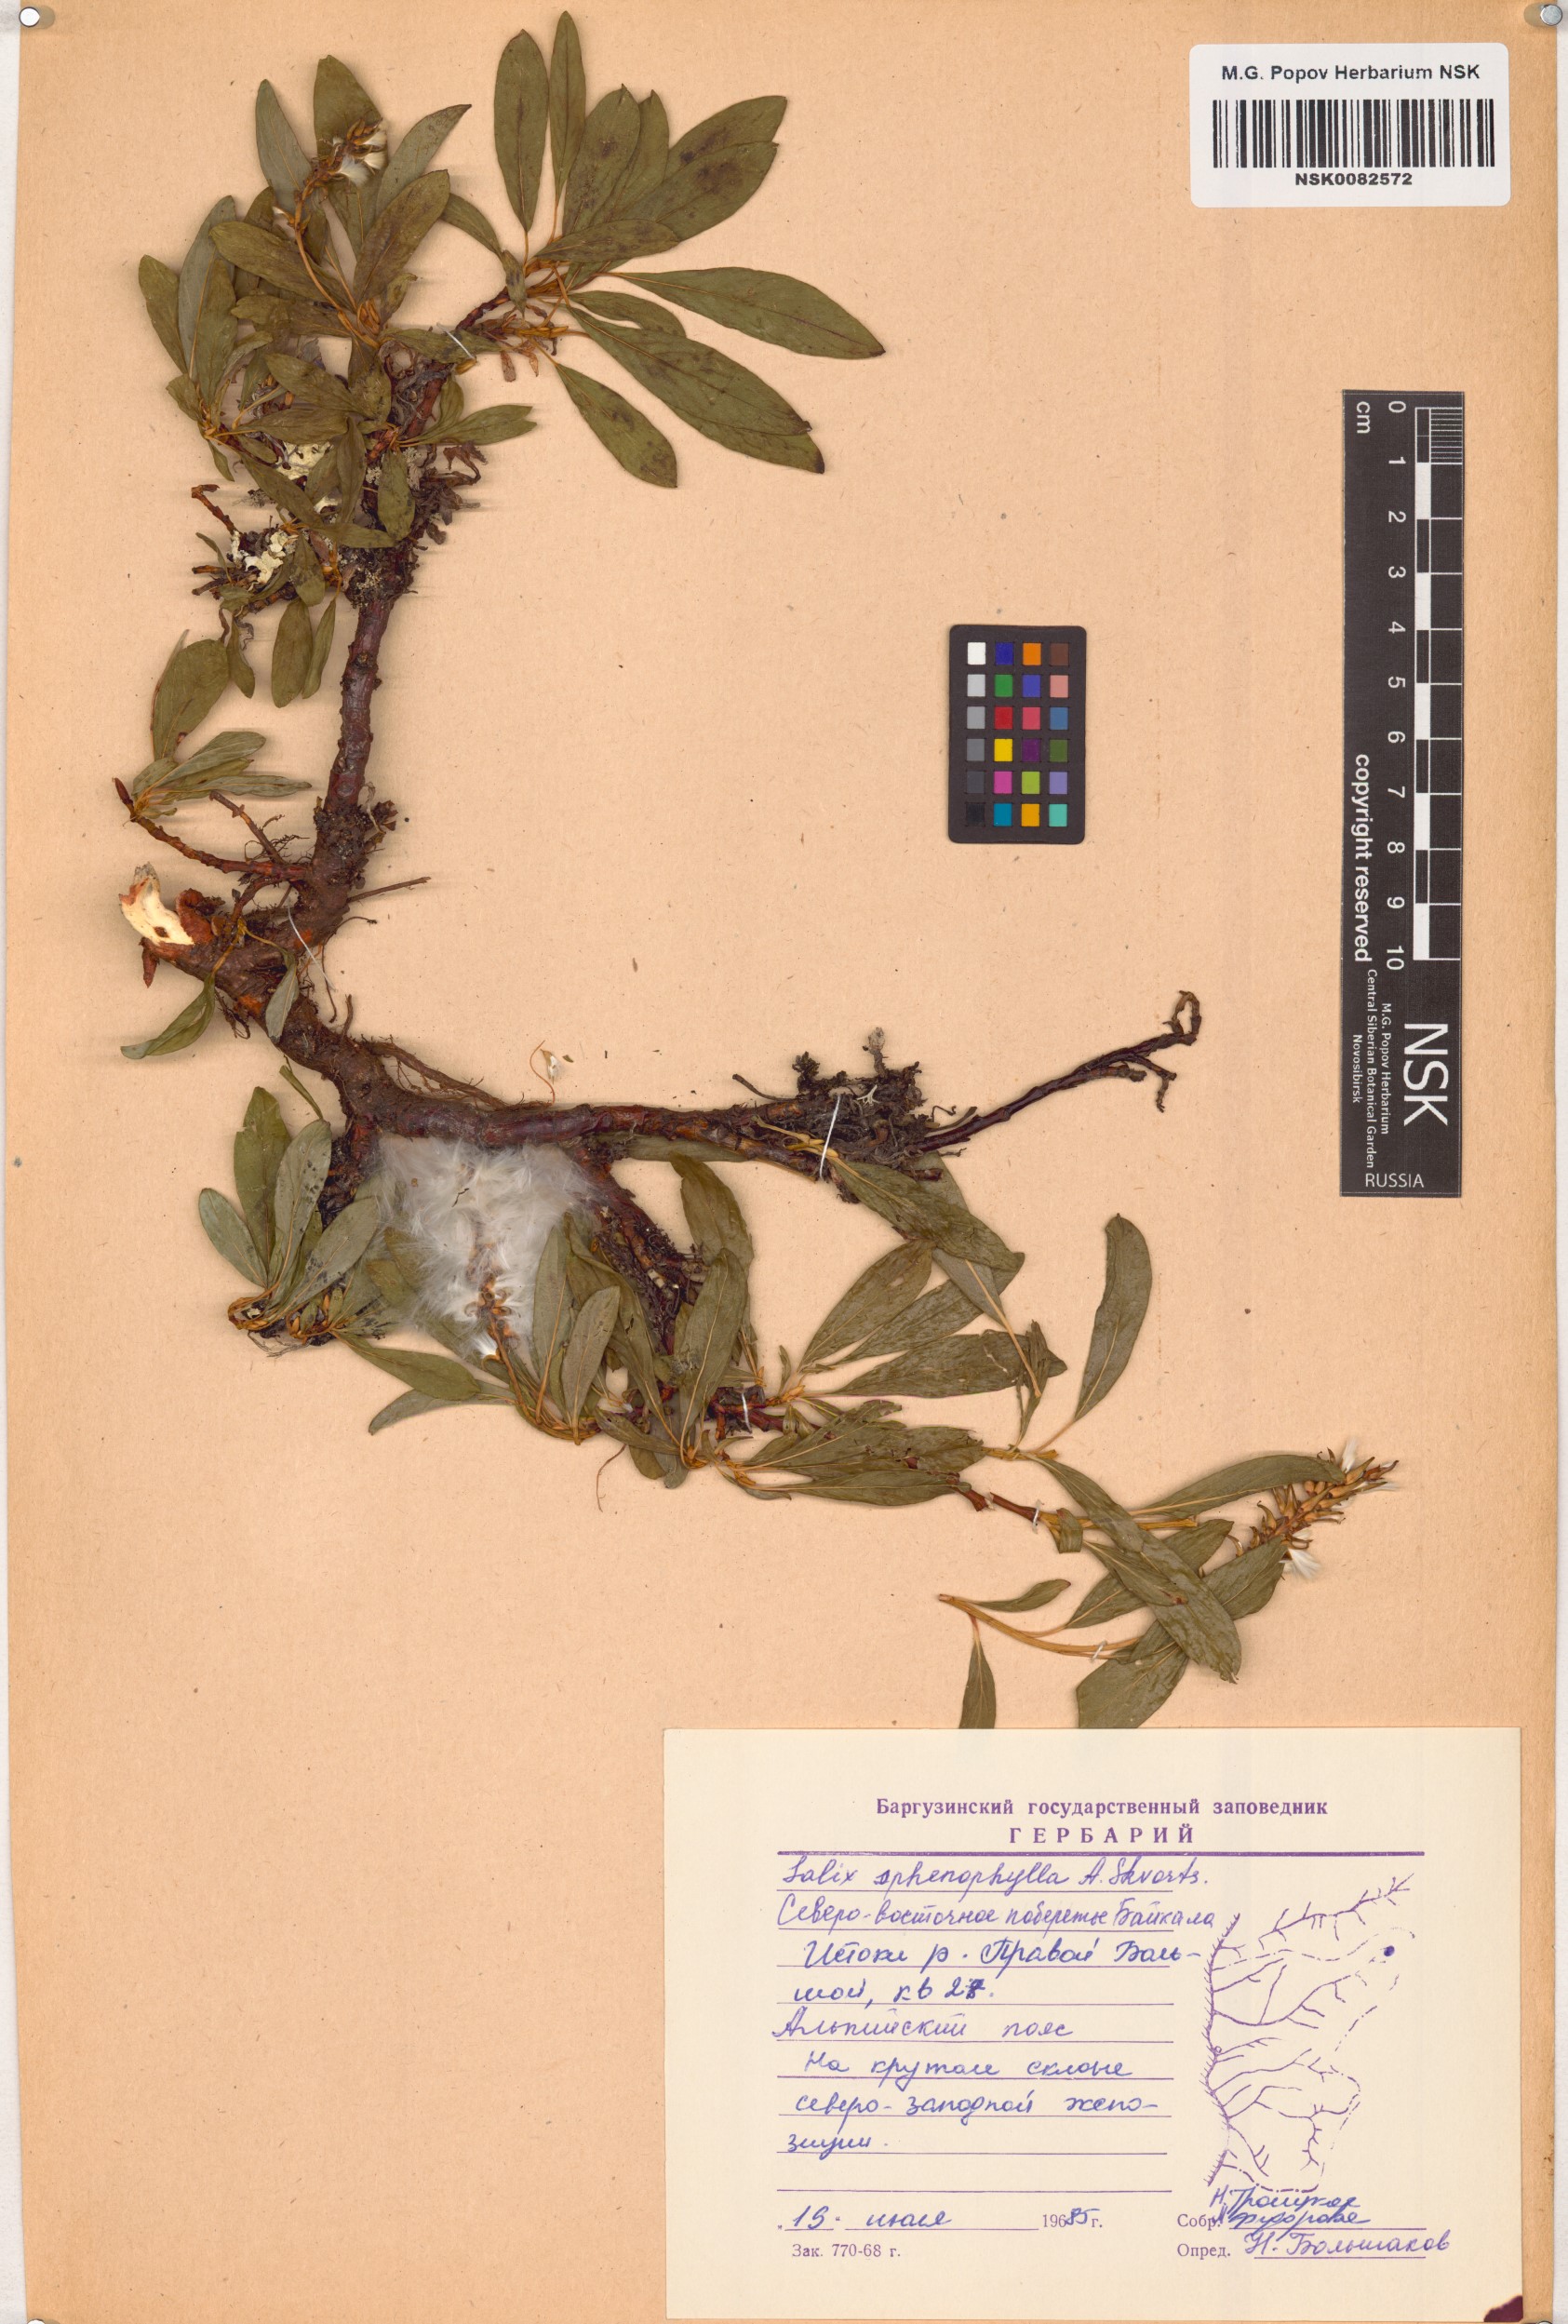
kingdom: Plantae
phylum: Tracheophyta
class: Magnoliopsida
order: Malpighiales
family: Salicaceae
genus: Salix
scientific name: Salix sphenophylla
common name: Wedge-leaved willow
